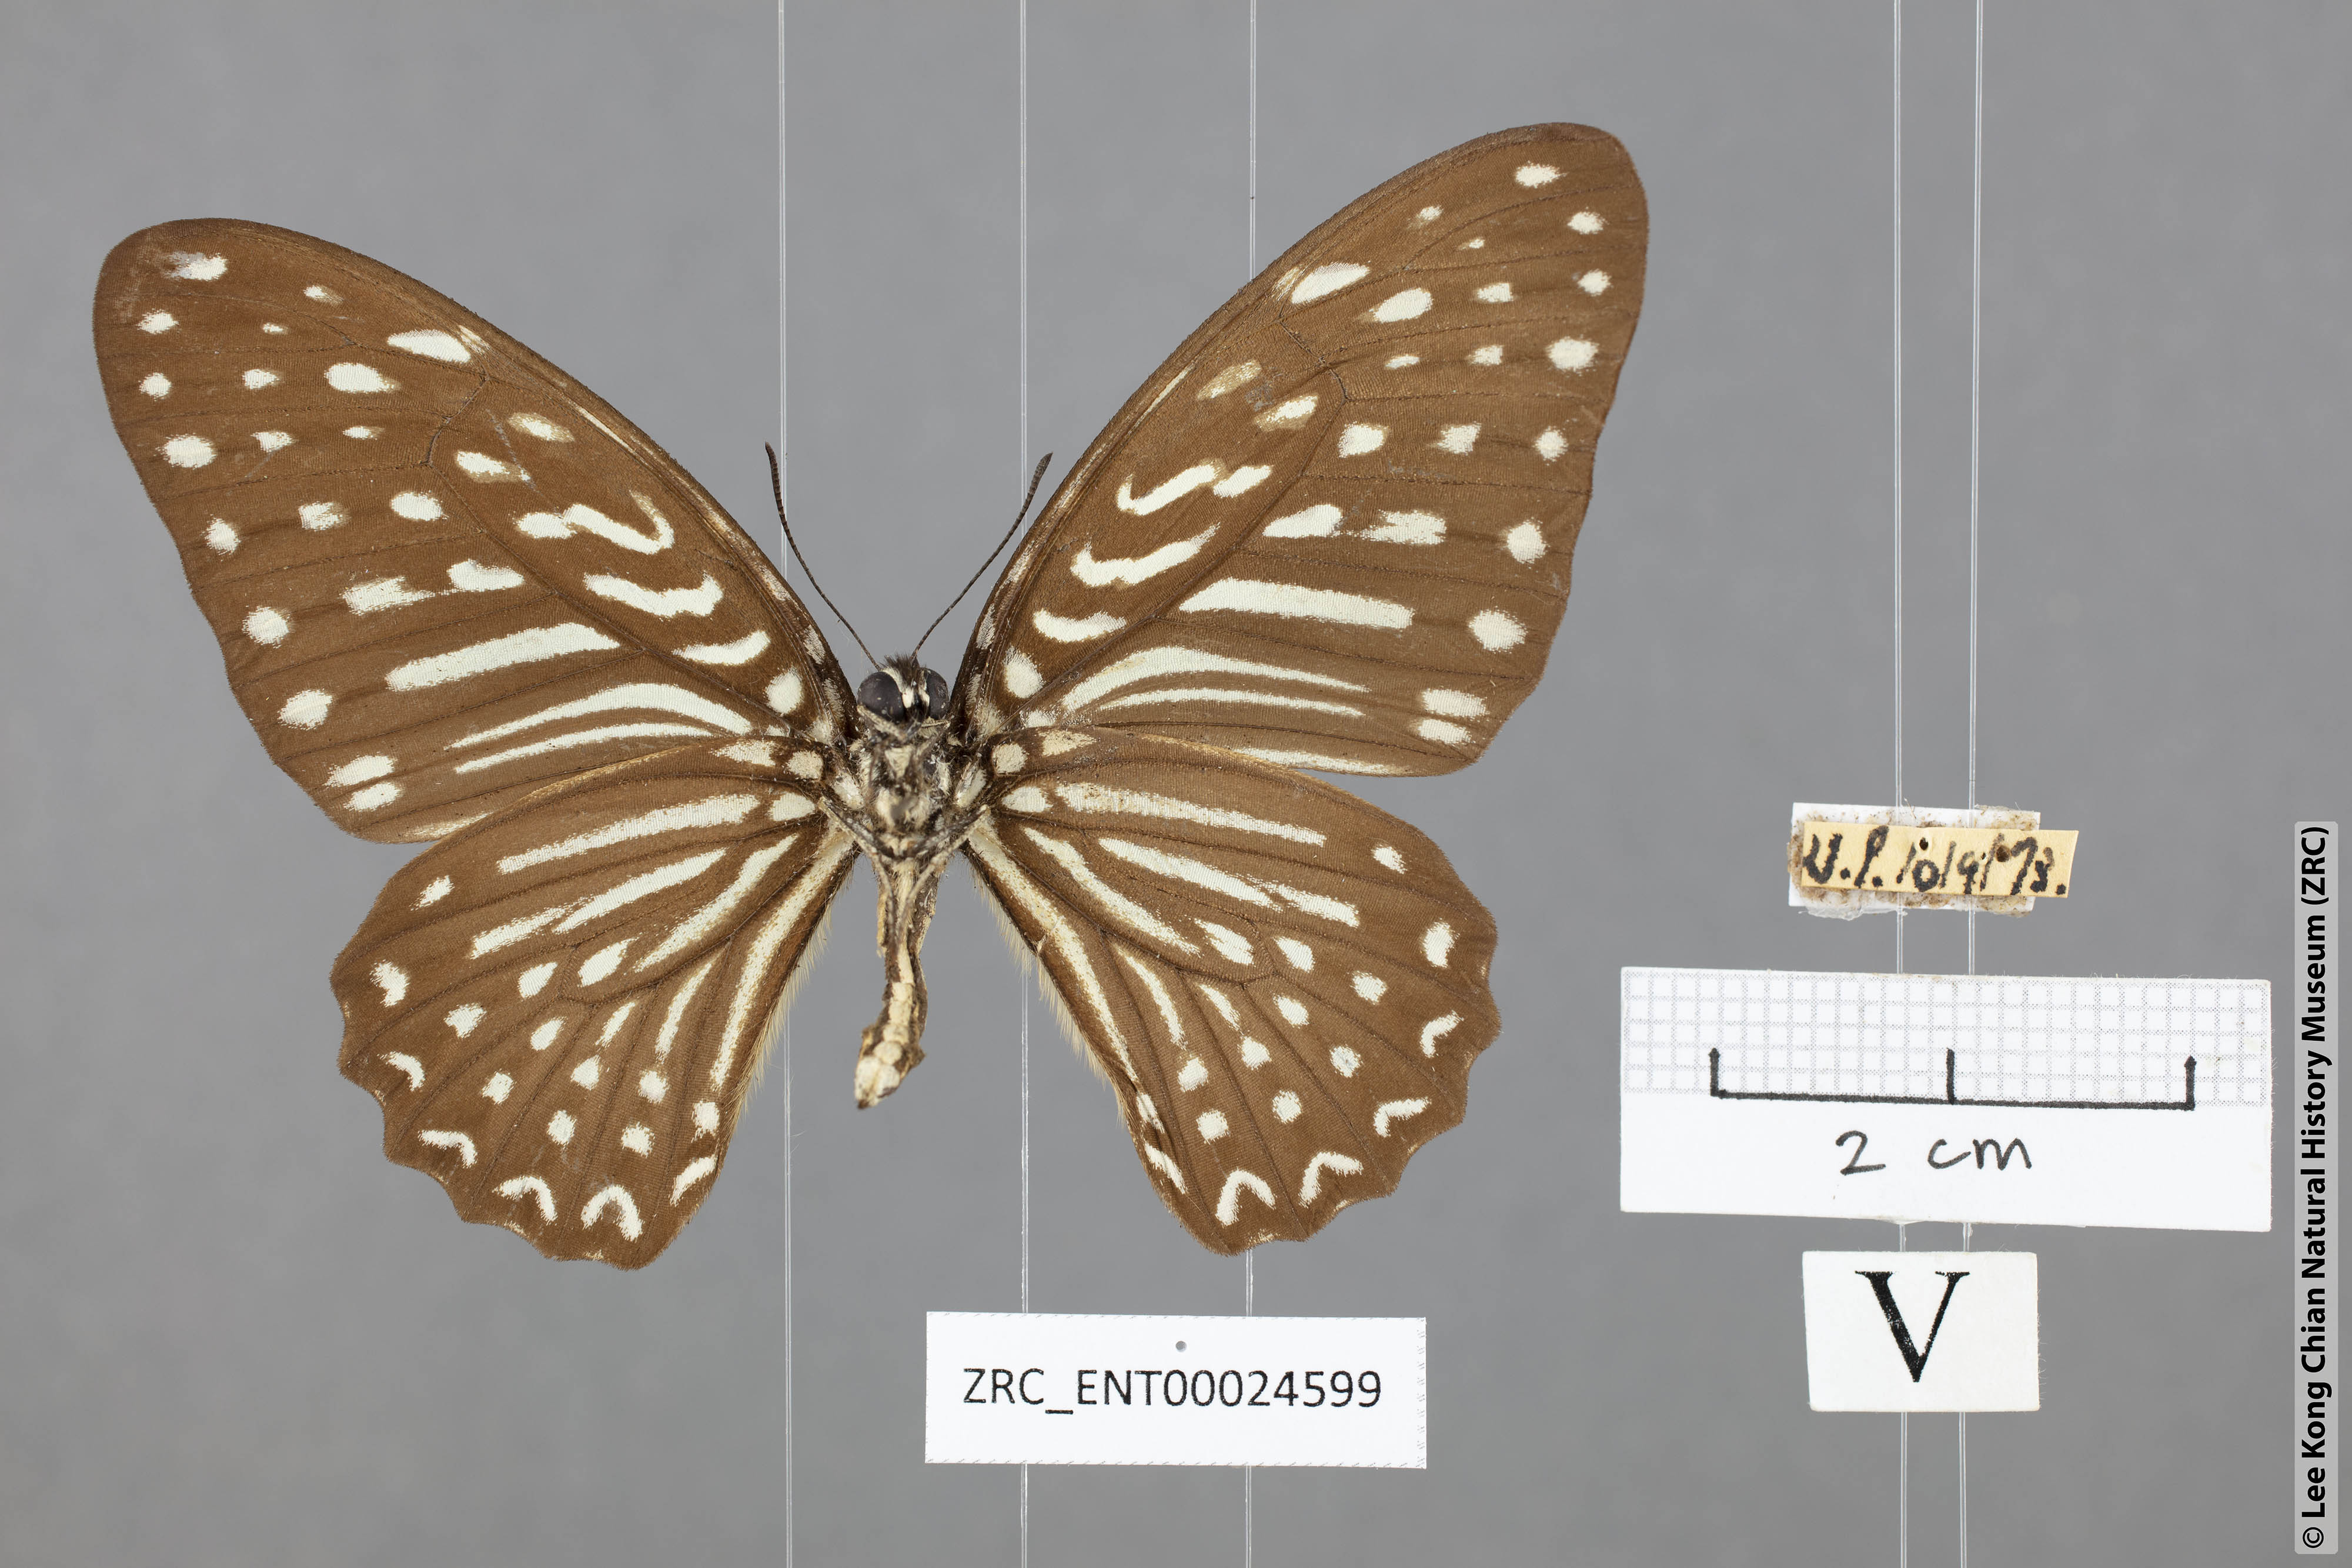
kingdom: Animalia
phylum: Arthropoda
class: Insecta
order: Lepidoptera
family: Papilionidae
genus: Graphium
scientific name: Graphium megarus
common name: Spotted zebra
